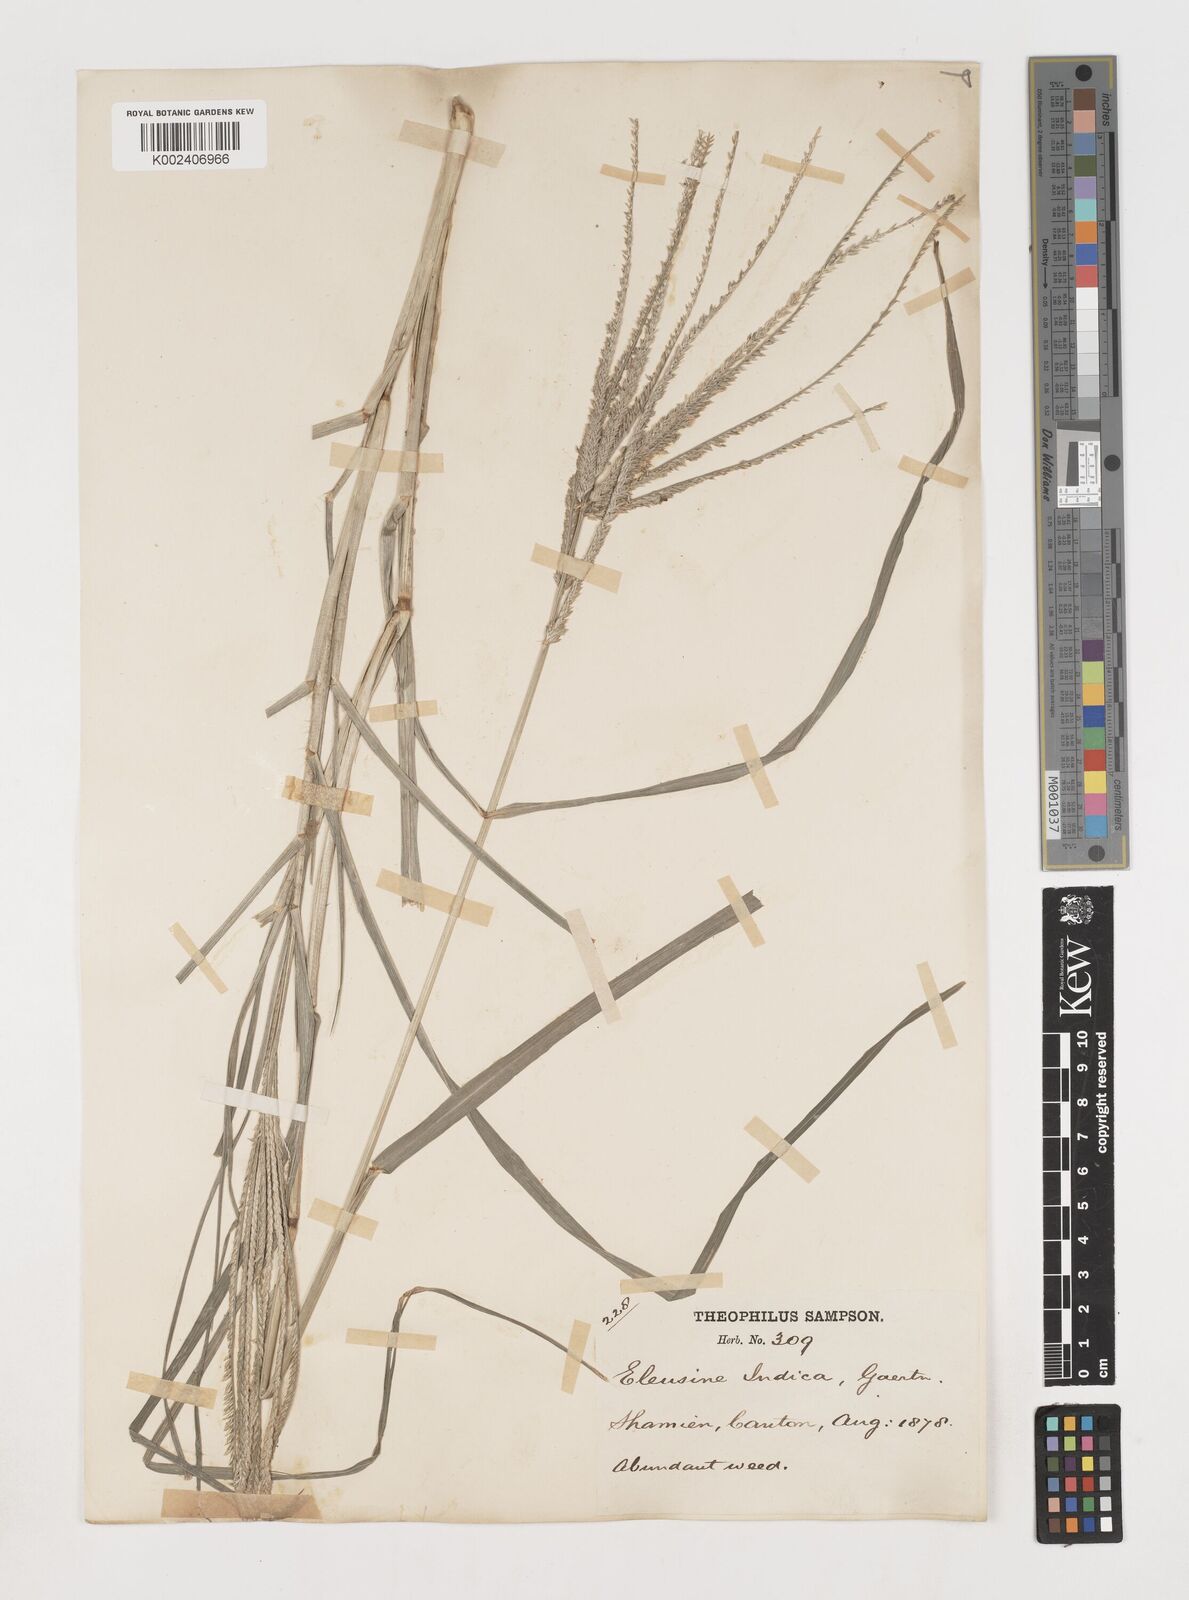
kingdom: Plantae
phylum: Tracheophyta
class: Liliopsida
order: Poales
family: Poaceae
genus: Eleusine
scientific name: Eleusine indica
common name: Yard-grass
